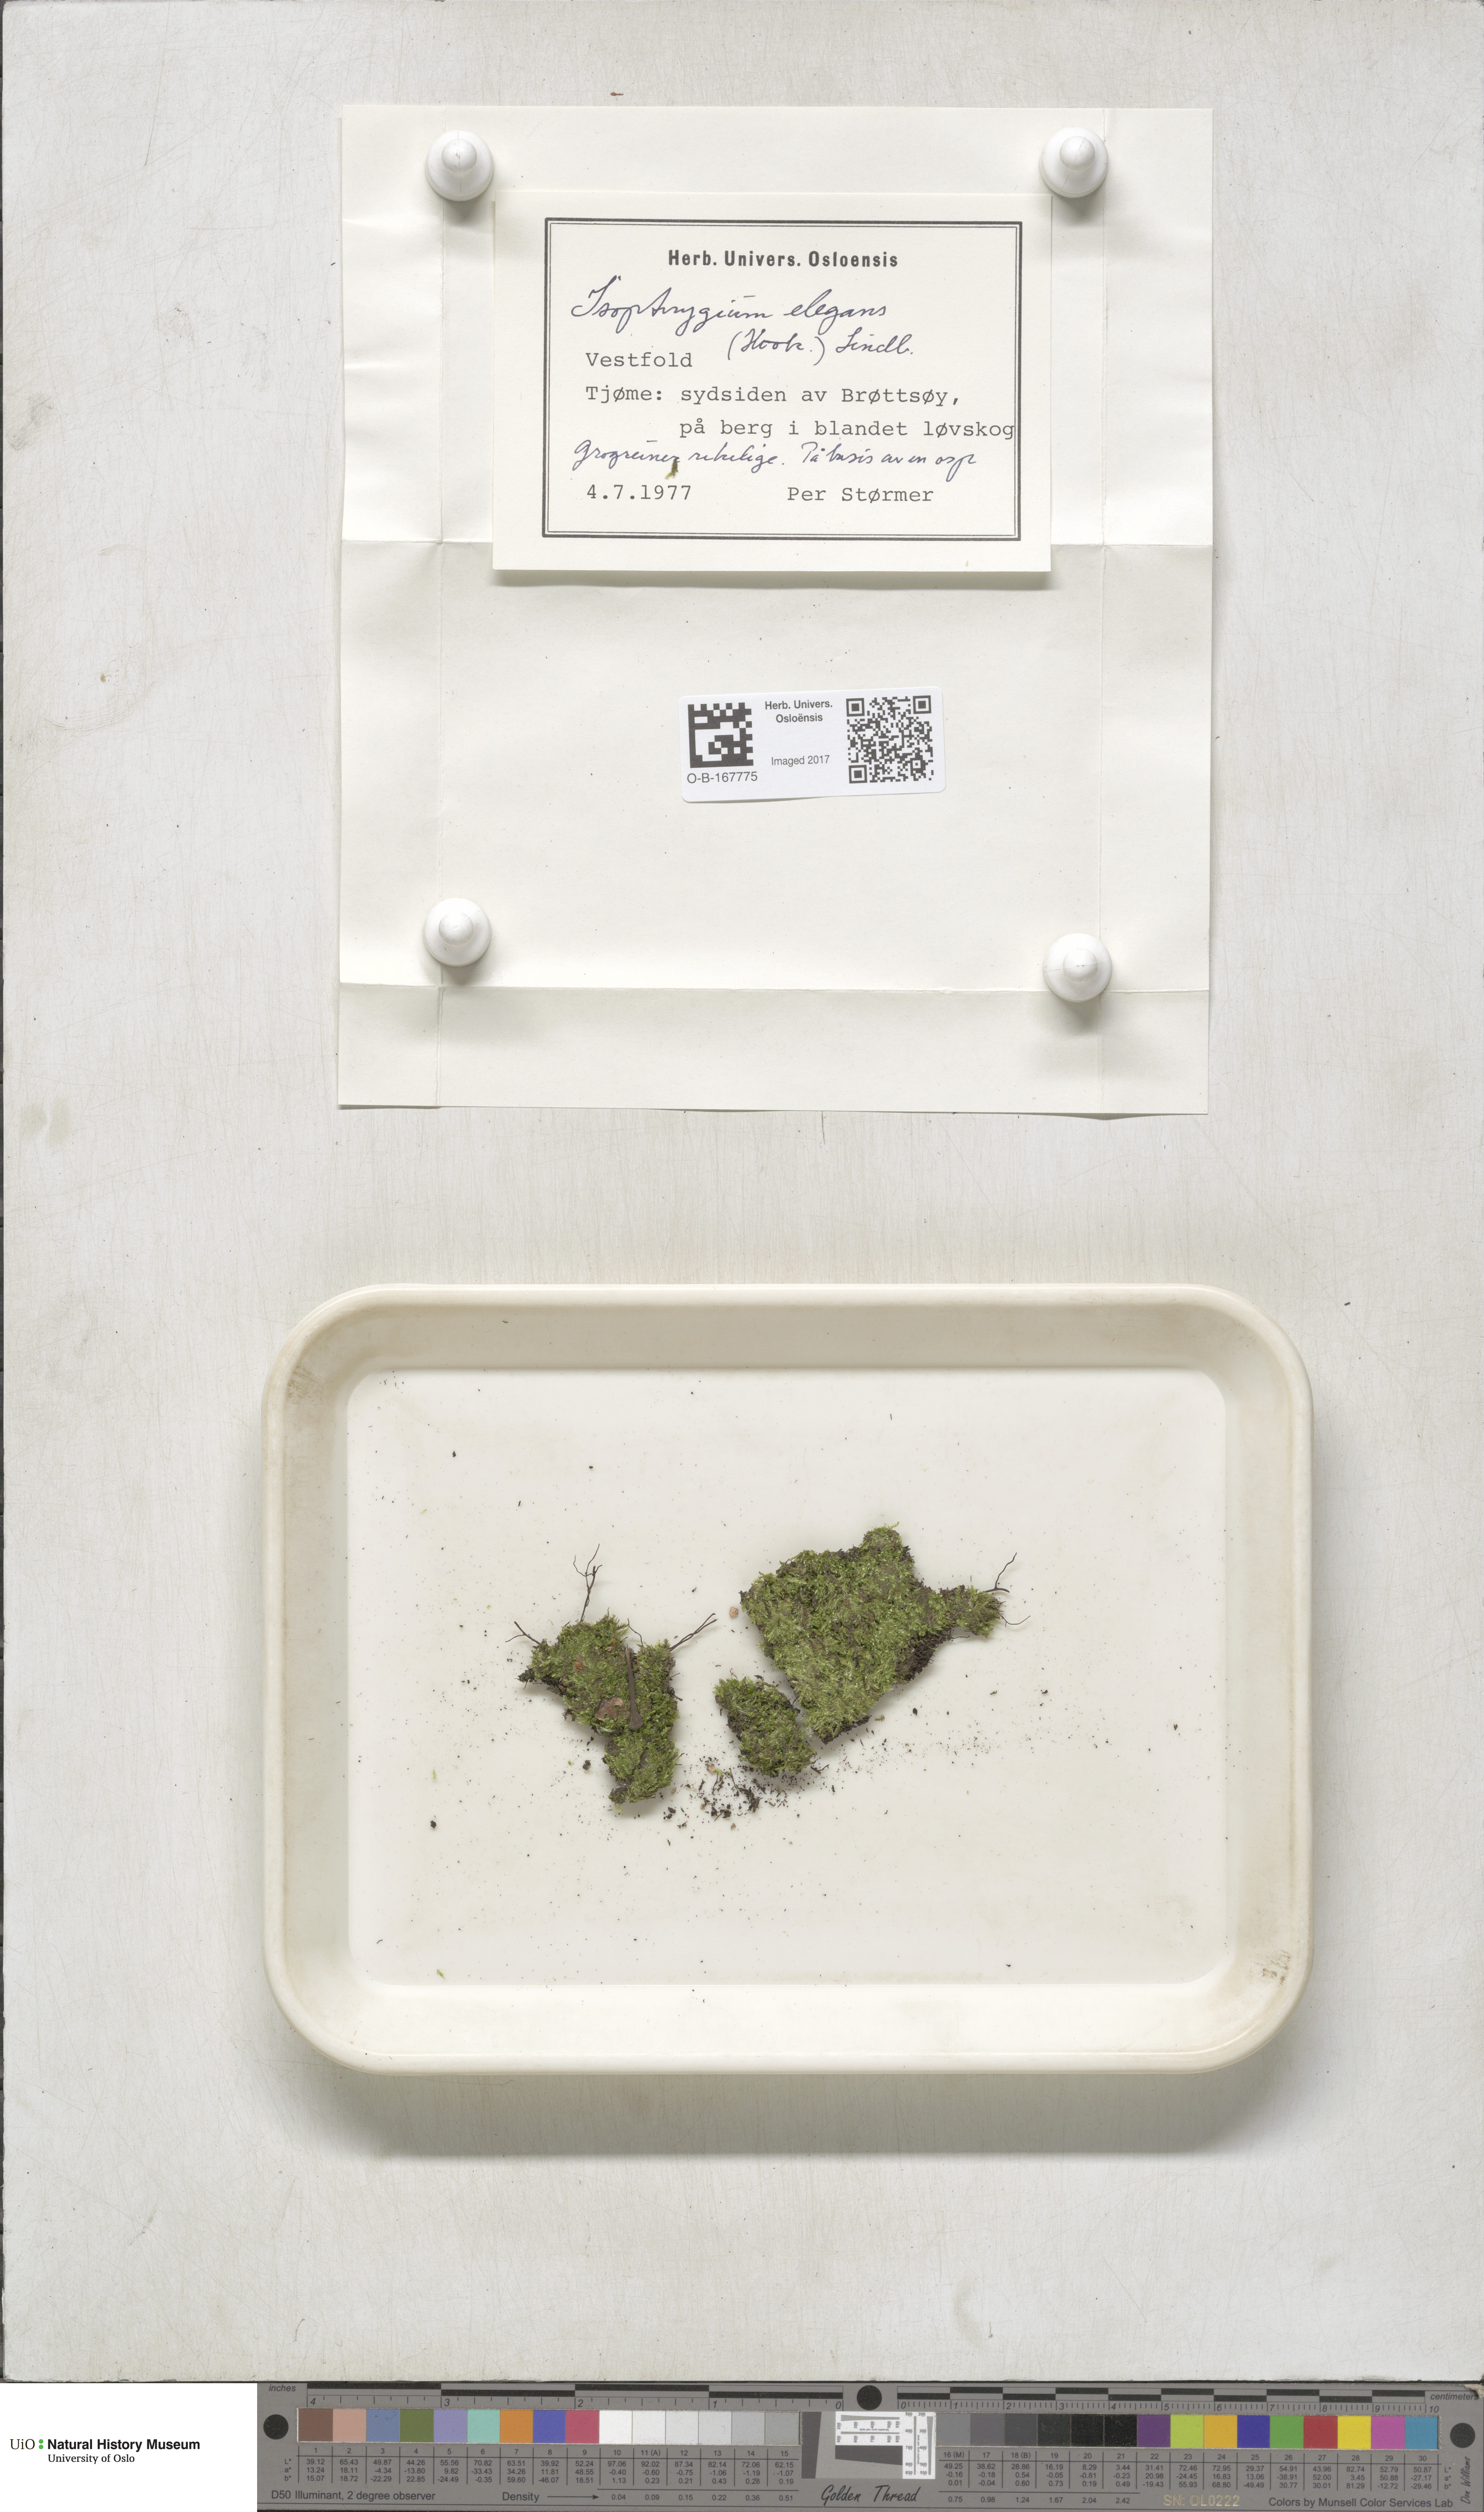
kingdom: Plantae
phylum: Bryophyta
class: Bryopsida
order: Hypnales
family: Plagiotheciaceae
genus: Pseudotaxiphyllum
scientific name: Pseudotaxiphyllum elegans
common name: Elegant silk moss
